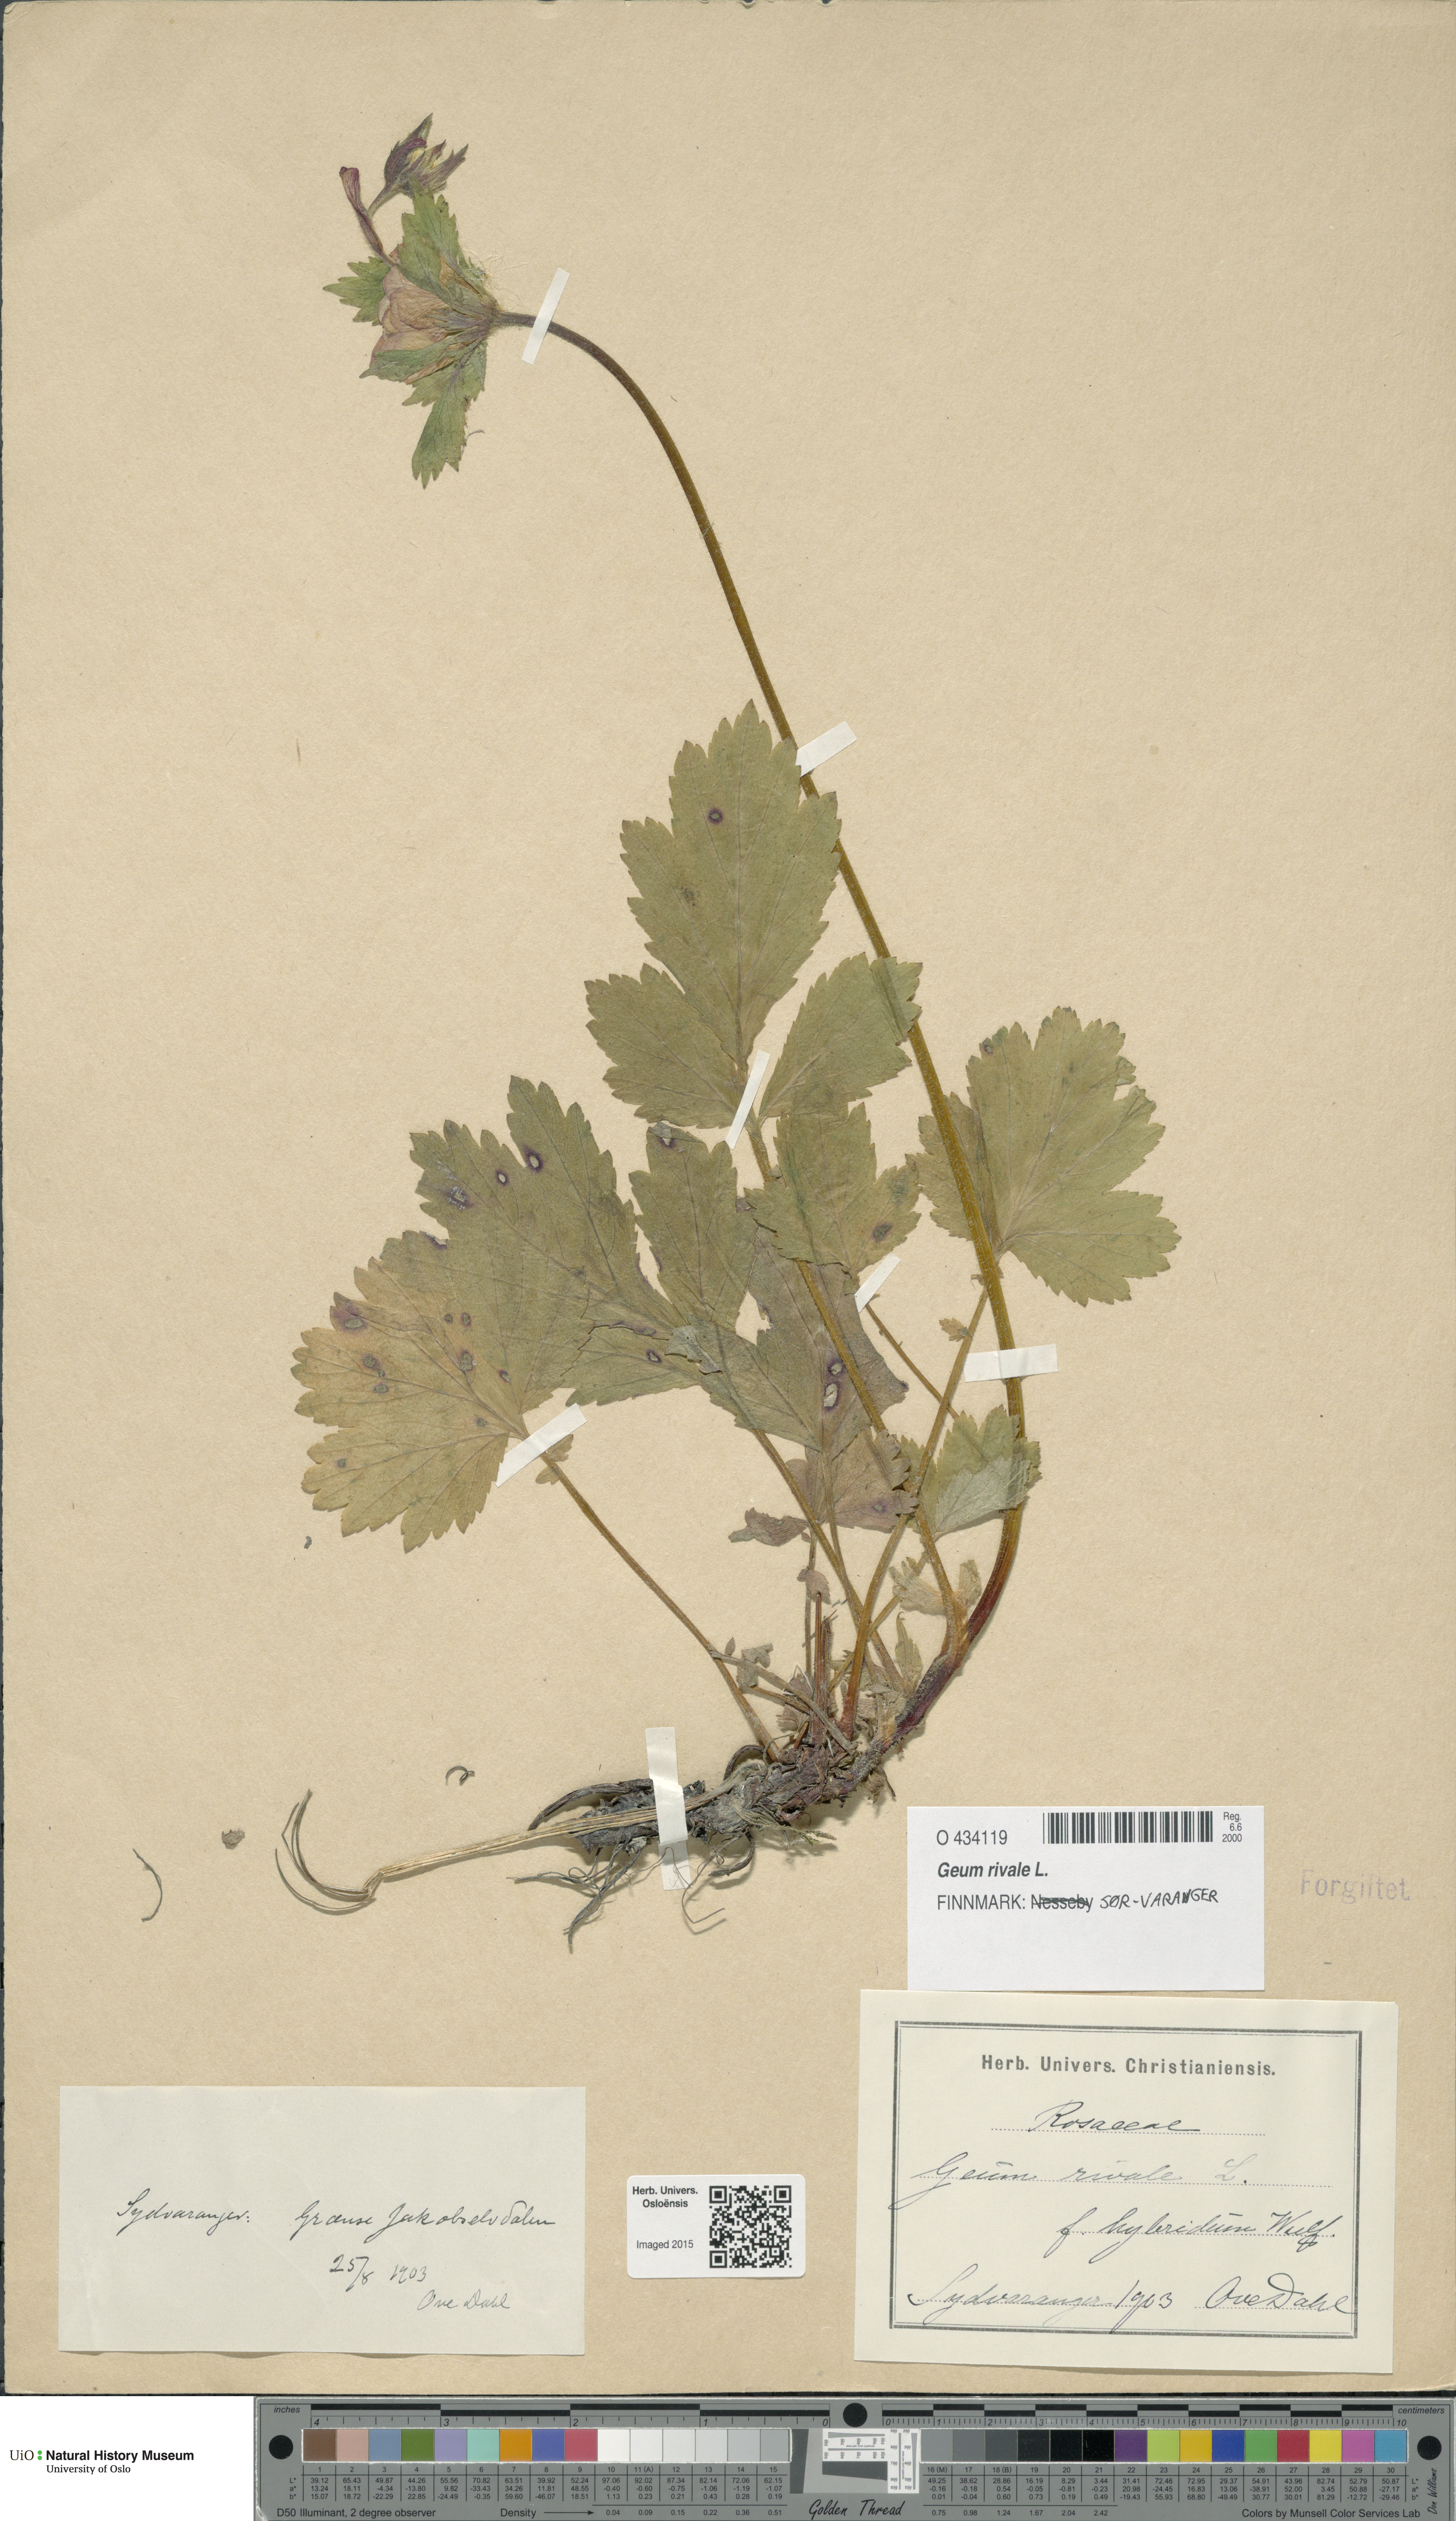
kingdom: Plantae
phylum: Tracheophyta
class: Magnoliopsida
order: Rosales
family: Rosaceae
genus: Geum
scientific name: Geum rivale
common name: Water avens
